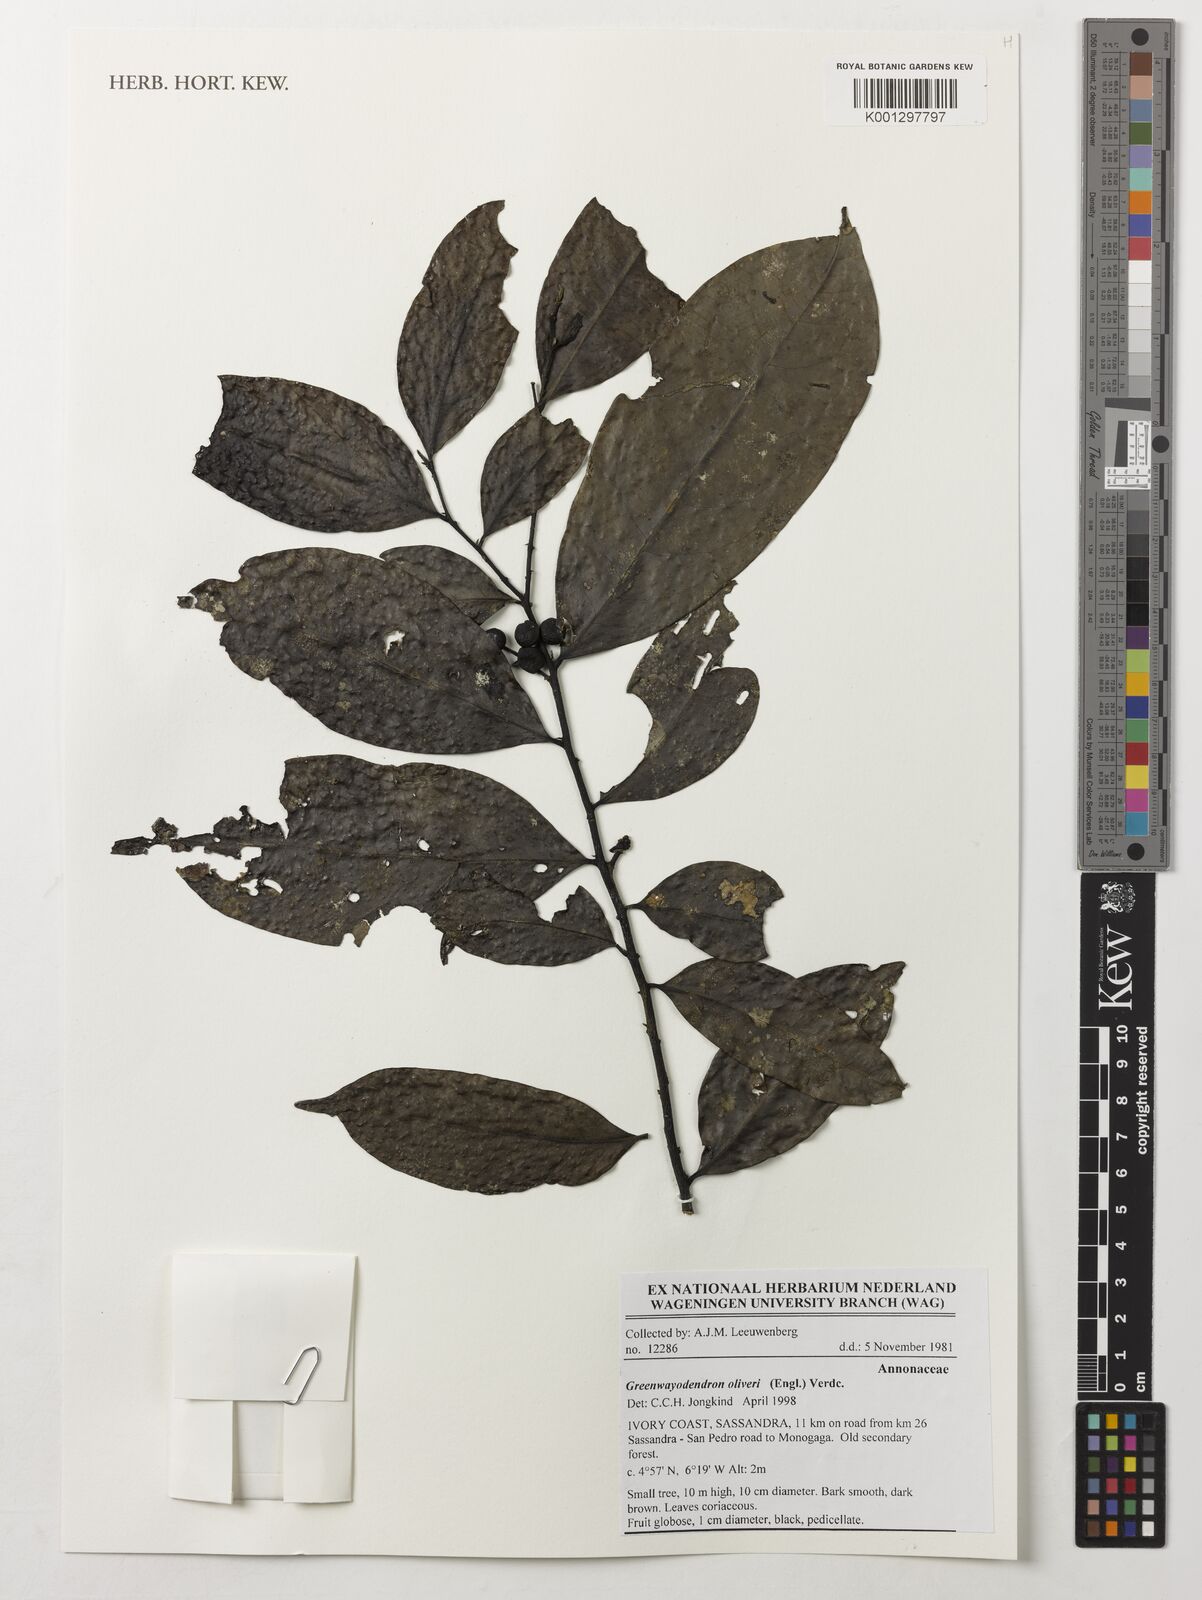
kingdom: Plantae
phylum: Tracheophyta
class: Magnoliopsida
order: Magnoliales
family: Annonaceae
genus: Greenwayodendron
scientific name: Greenwayodendron oliveri
